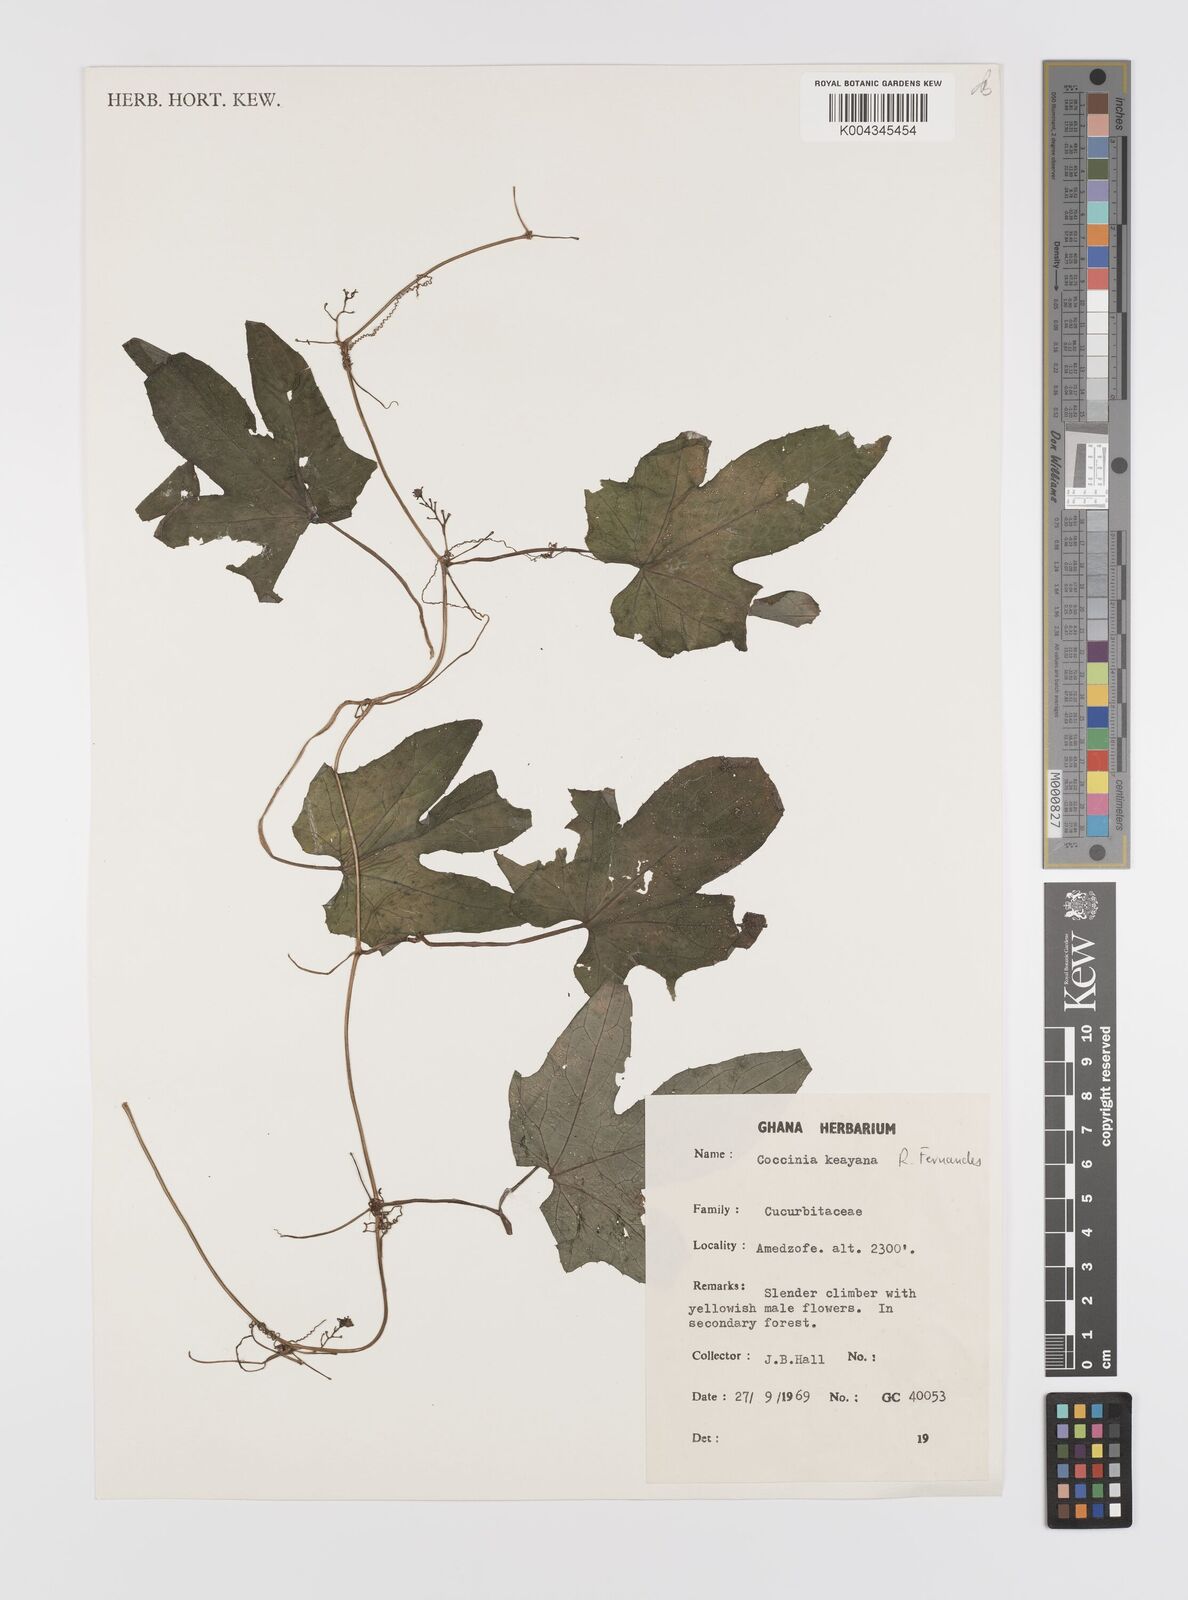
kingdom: Plantae
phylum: Tracheophyta
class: Magnoliopsida
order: Cucurbitales
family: Cucurbitaceae
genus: Coccinia
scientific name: Coccinia keayana
